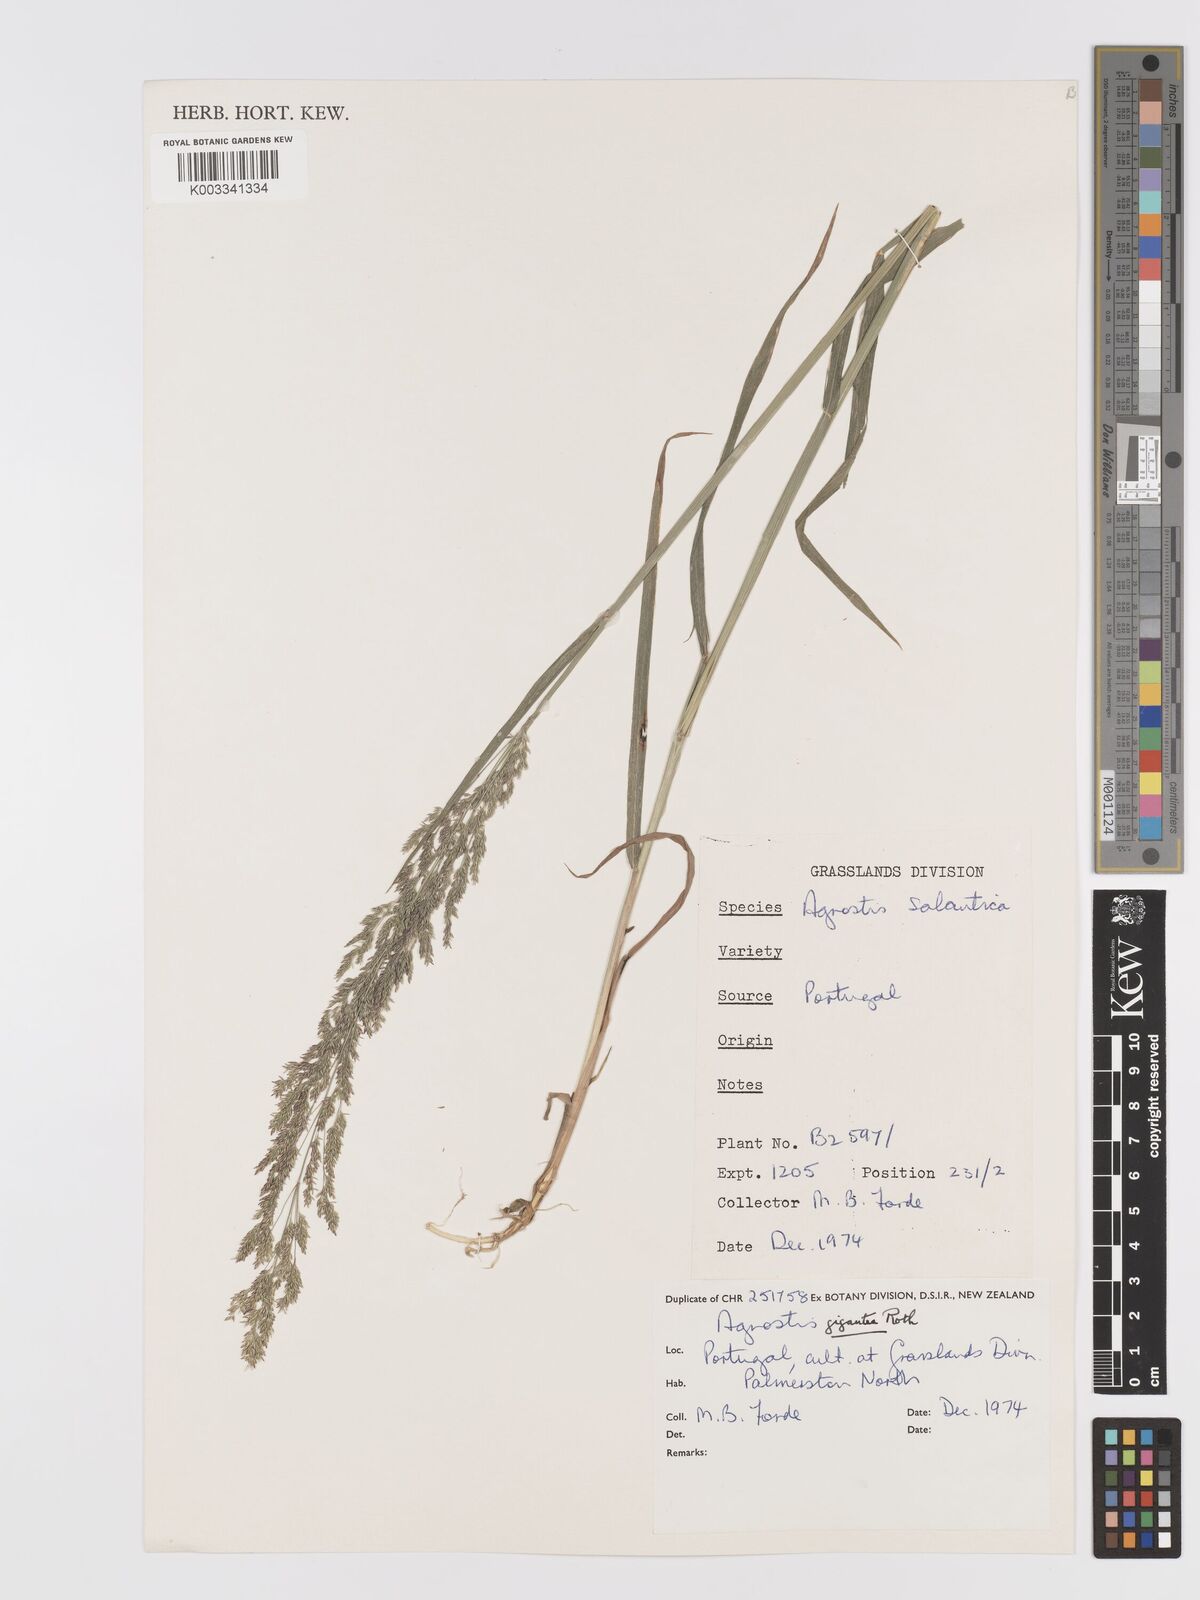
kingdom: Plantae
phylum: Tracheophyta
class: Liliopsida
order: Poales
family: Poaceae
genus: Agrostis
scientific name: Agrostis gigantea
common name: Black bent
